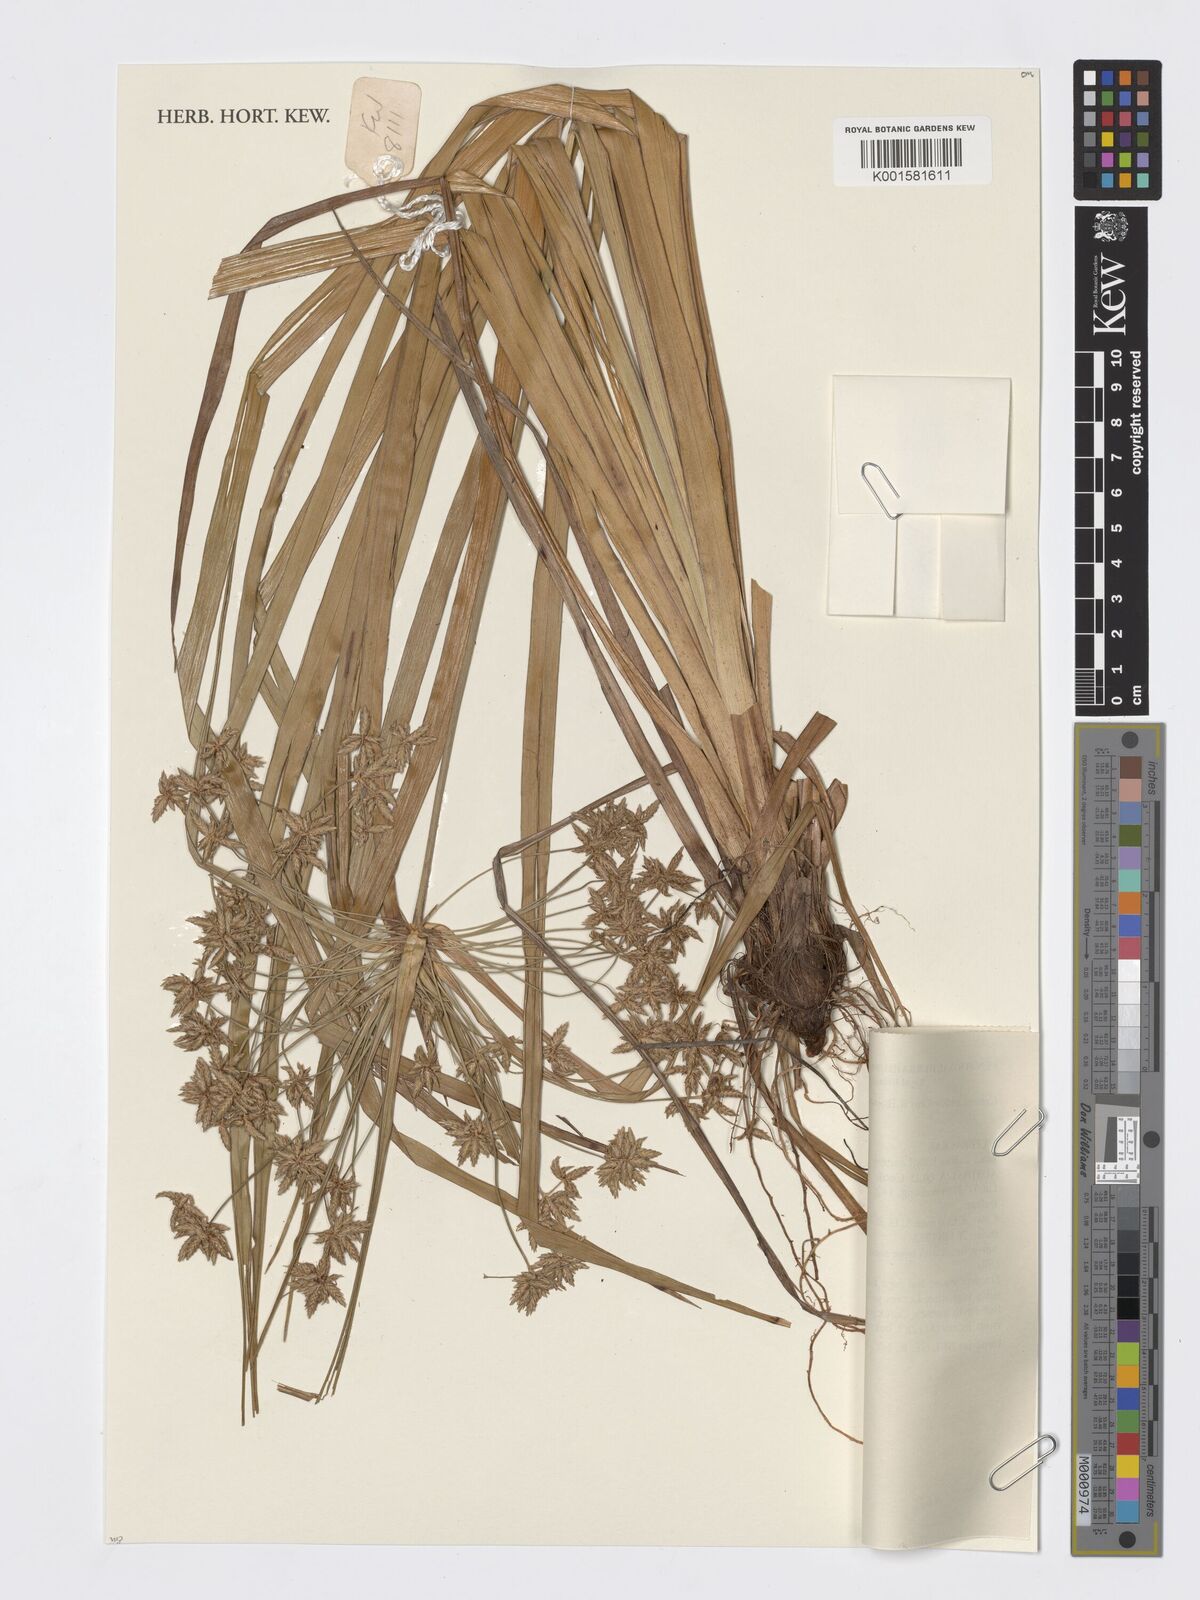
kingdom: Plantae
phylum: Tracheophyta
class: Liliopsida
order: Poales
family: Cyperaceae
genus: Cyperus
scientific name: Cyperus multispiceus
